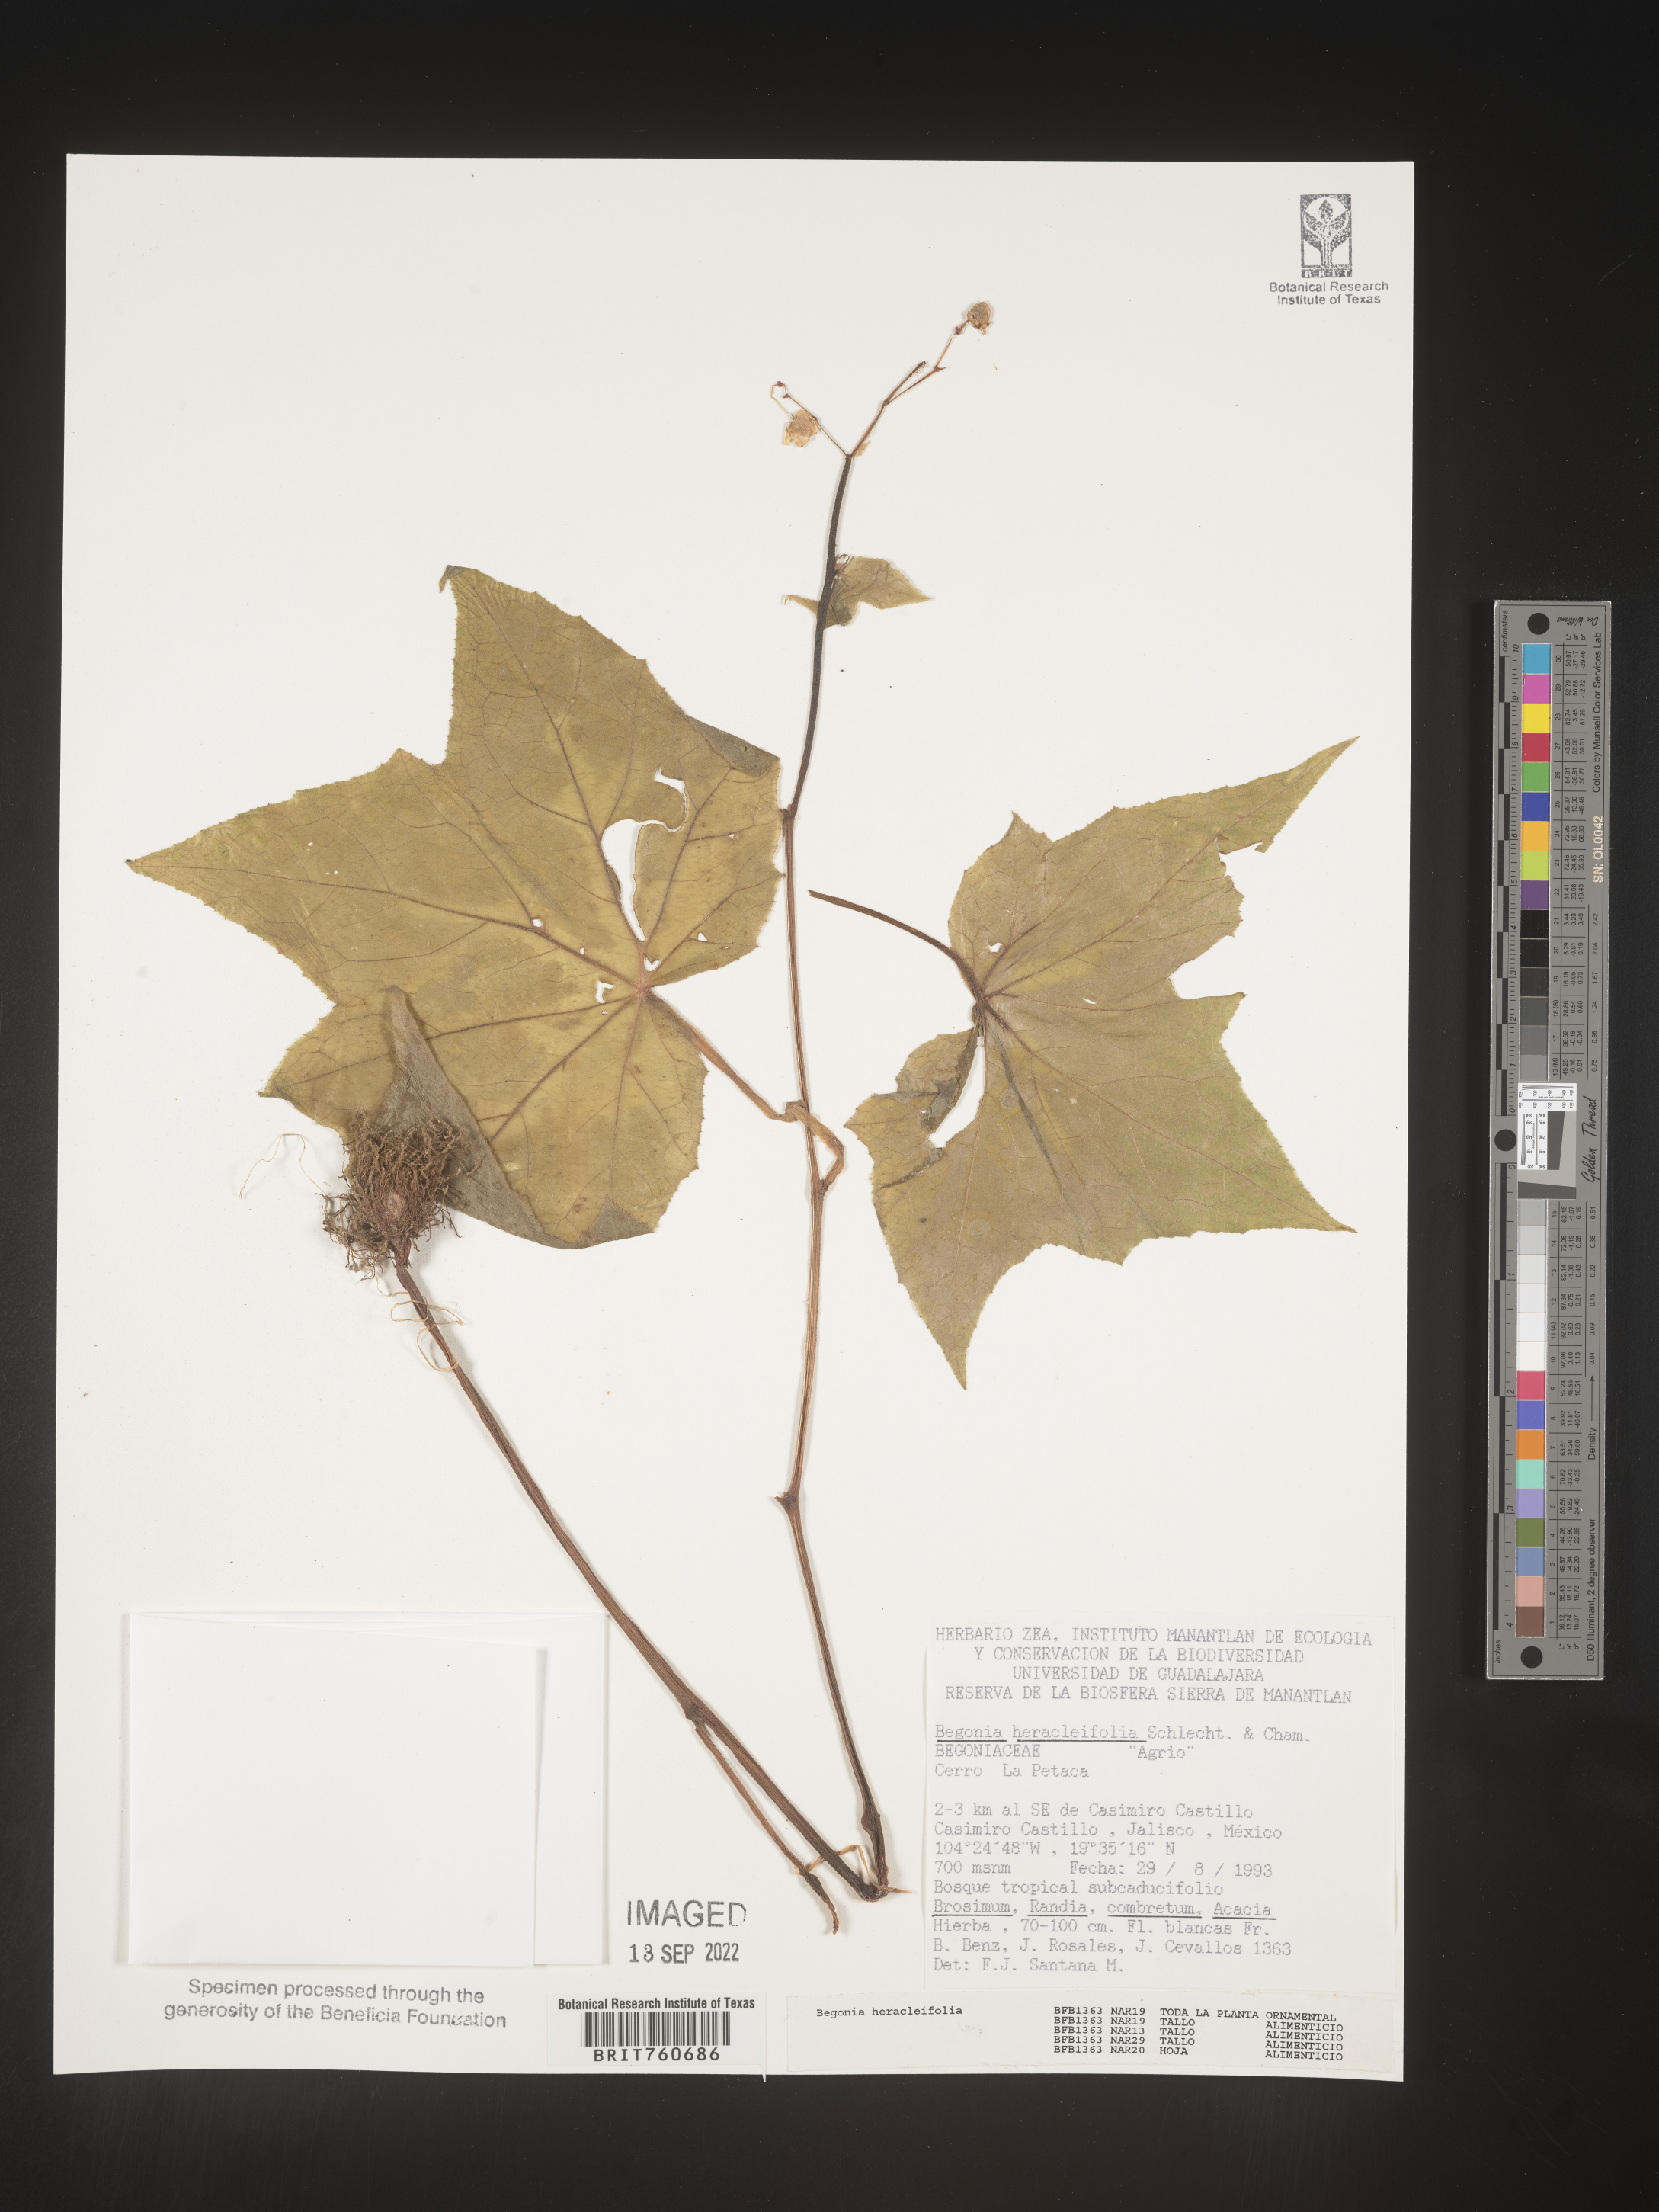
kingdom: Plantae
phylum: Tracheophyta
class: Magnoliopsida
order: Cucurbitales
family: Begoniaceae
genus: Begonia
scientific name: Begonia
